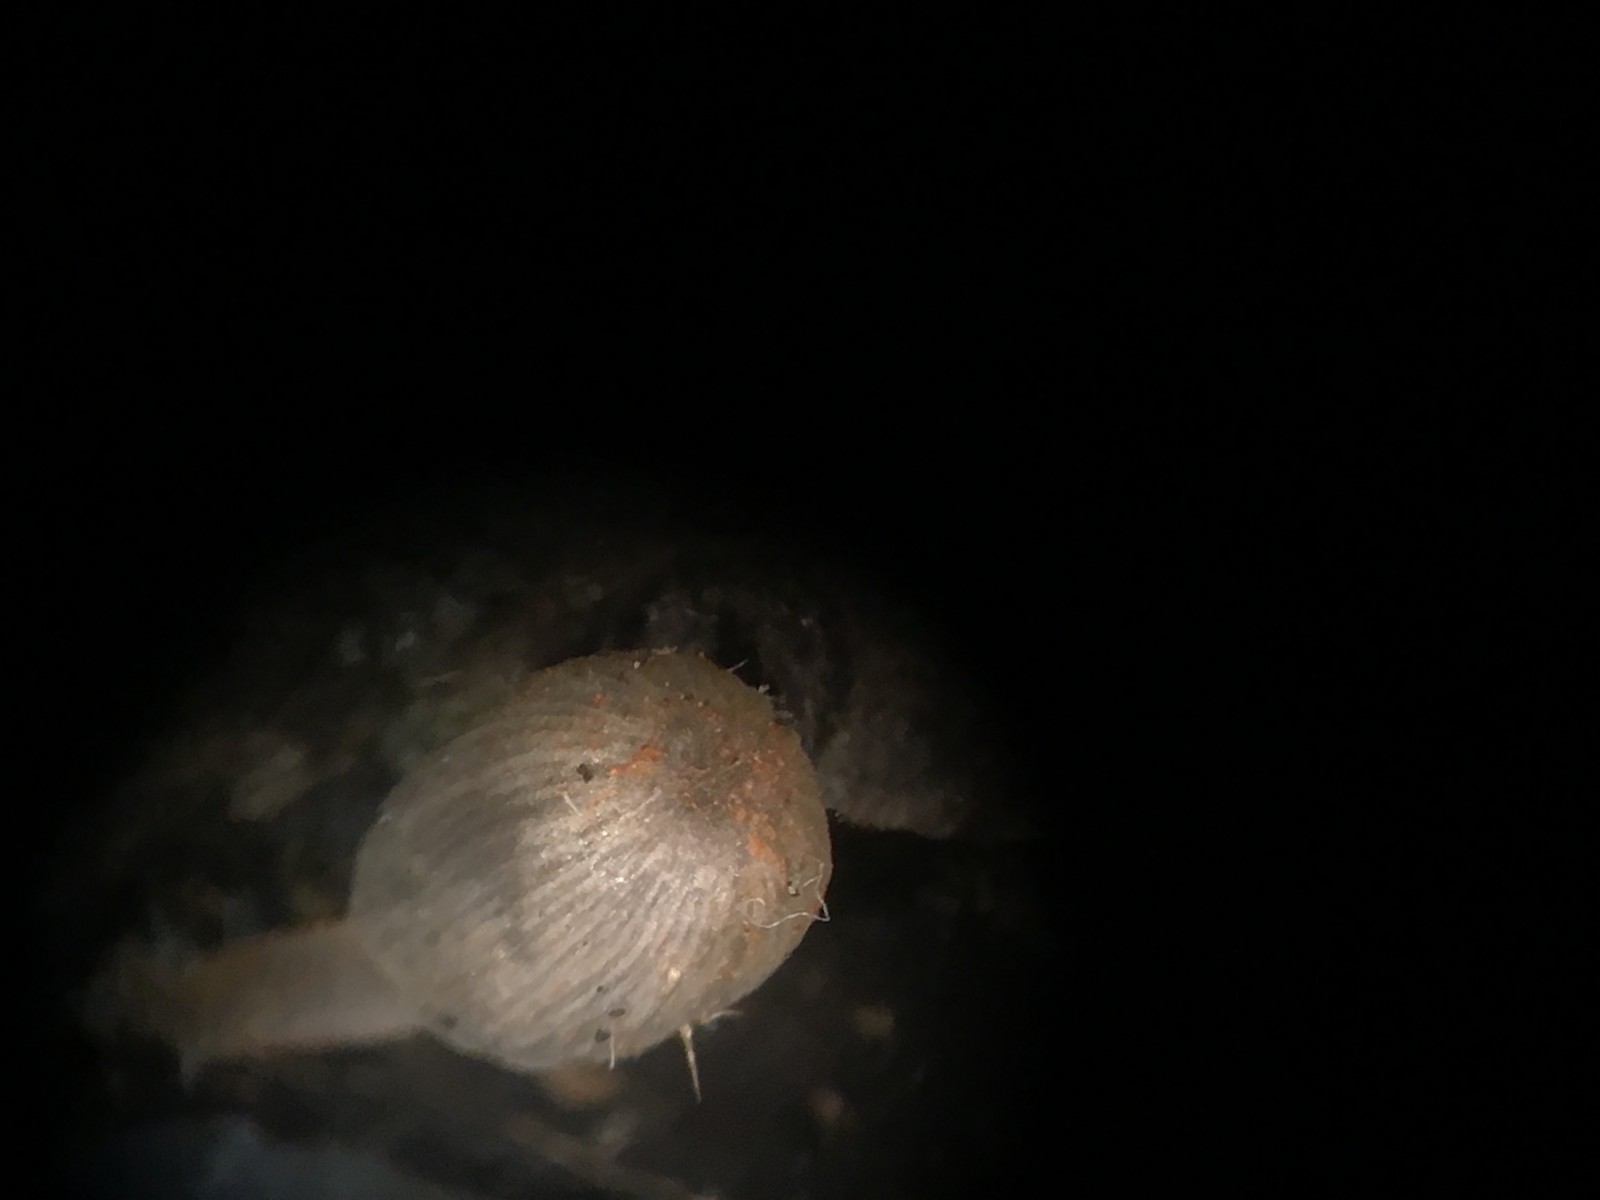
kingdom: Fungi
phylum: Basidiomycota
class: Agaricomycetes
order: Agaricales
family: Psathyrellaceae
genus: Coprinopsis
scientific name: Coprinopsis erythrocephala
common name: rødhåret blækhat
